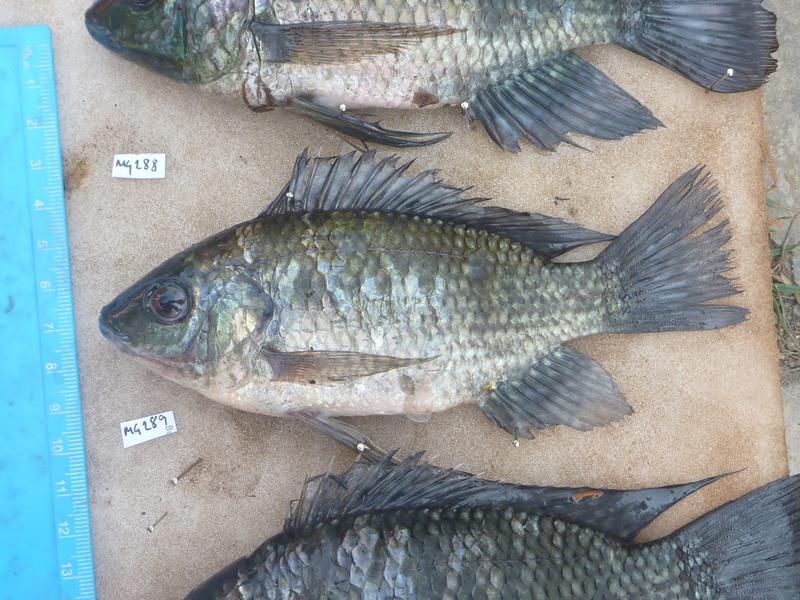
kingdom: Animalia
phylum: Chordata
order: Perciformes
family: Cichlidae
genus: Oreochromis
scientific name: Oreochromis leucostictus
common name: Blue spotted tilapia
